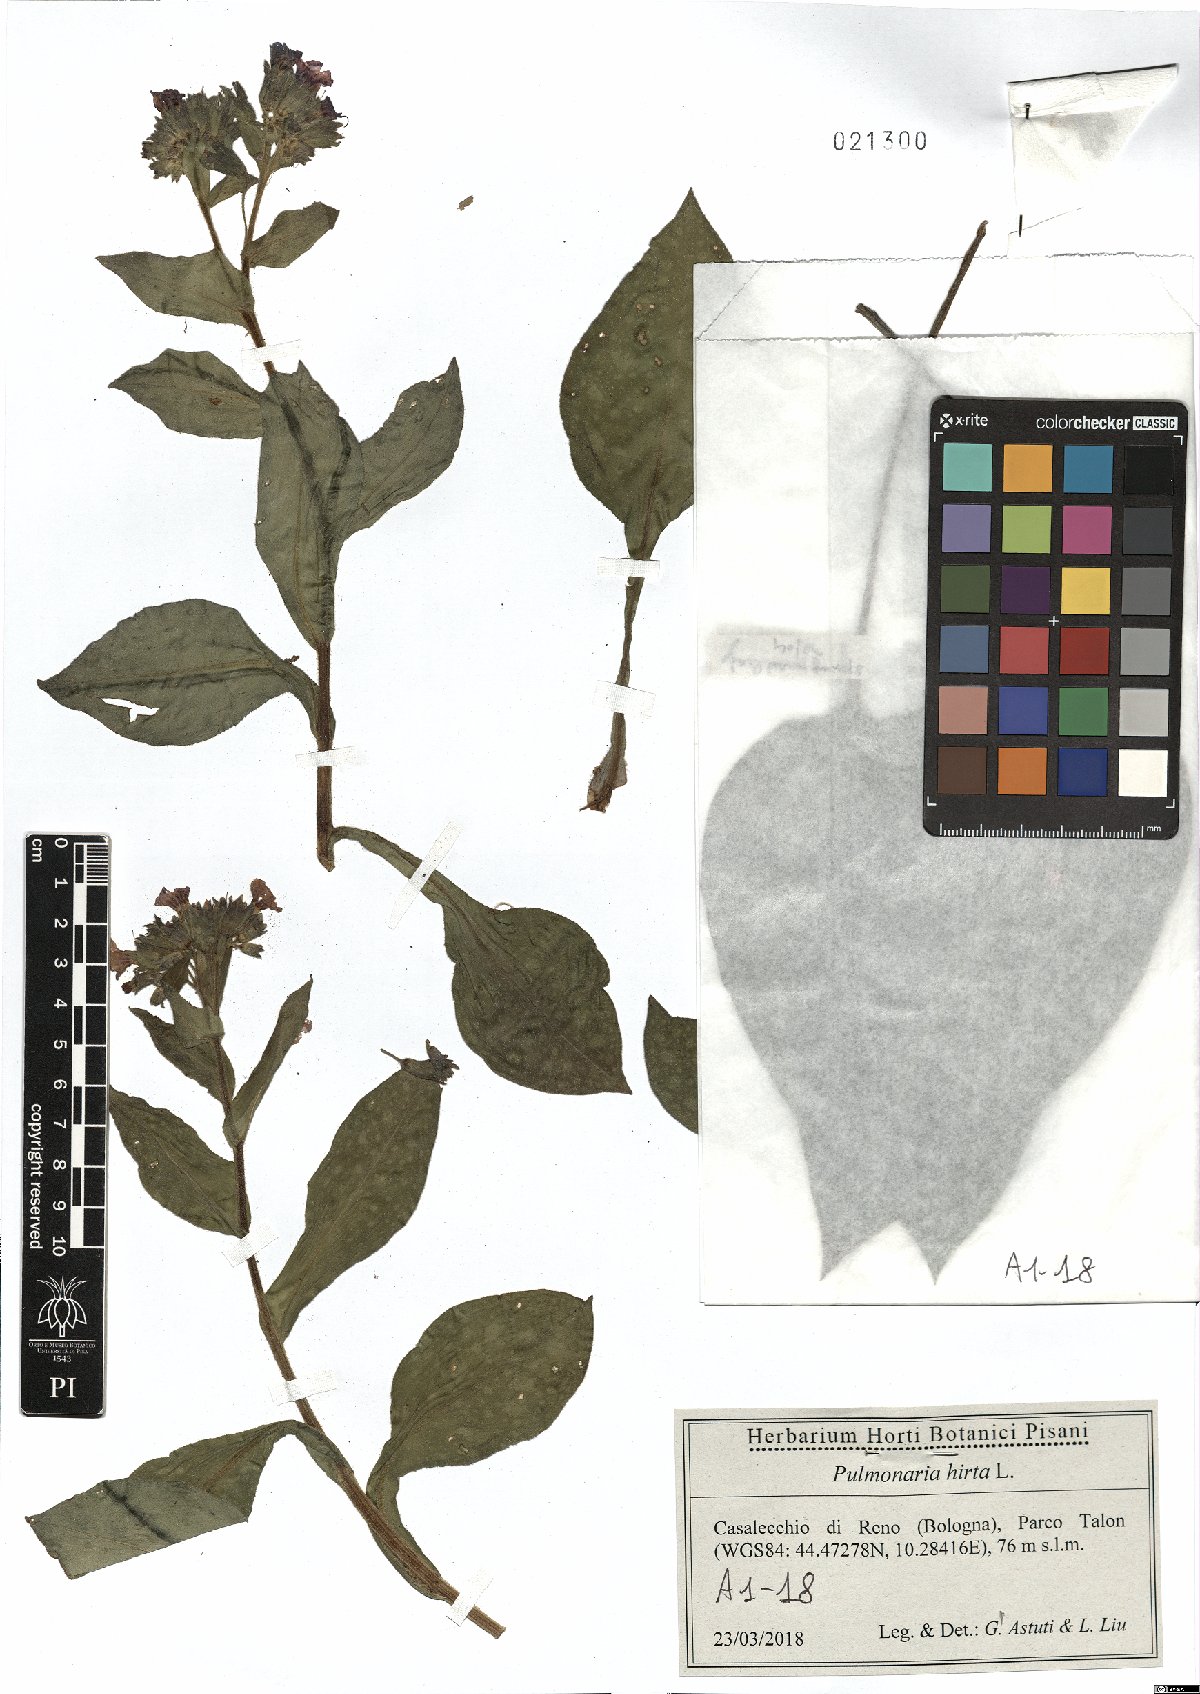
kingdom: Plantae
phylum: Tracheophyta
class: Magnoliopsida
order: Boraginales
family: Boraginaceae
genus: Pulmonaria
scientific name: Pulmonaria hirta
